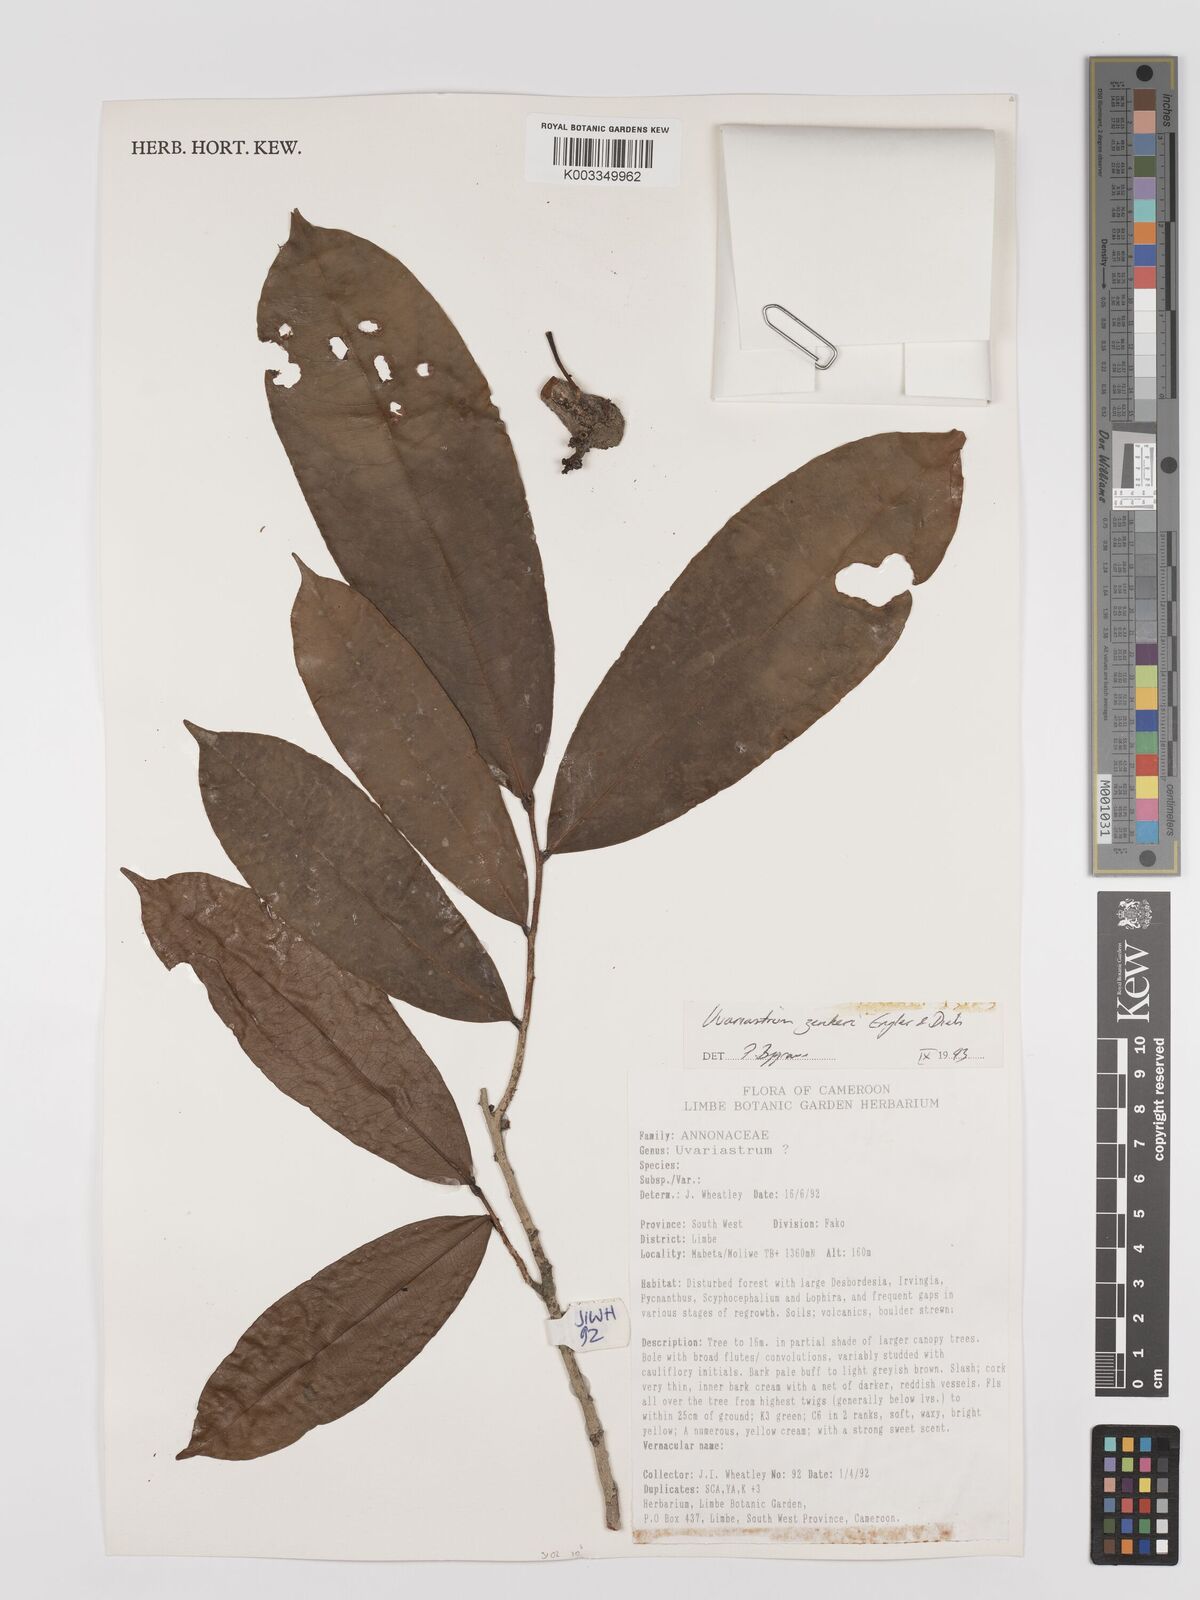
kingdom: Plantae
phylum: Tracheophyta
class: Magnoliopsida
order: Magnoliales
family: Annonaceae
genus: Uvariastrum
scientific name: Uvariastrum zenkeri
